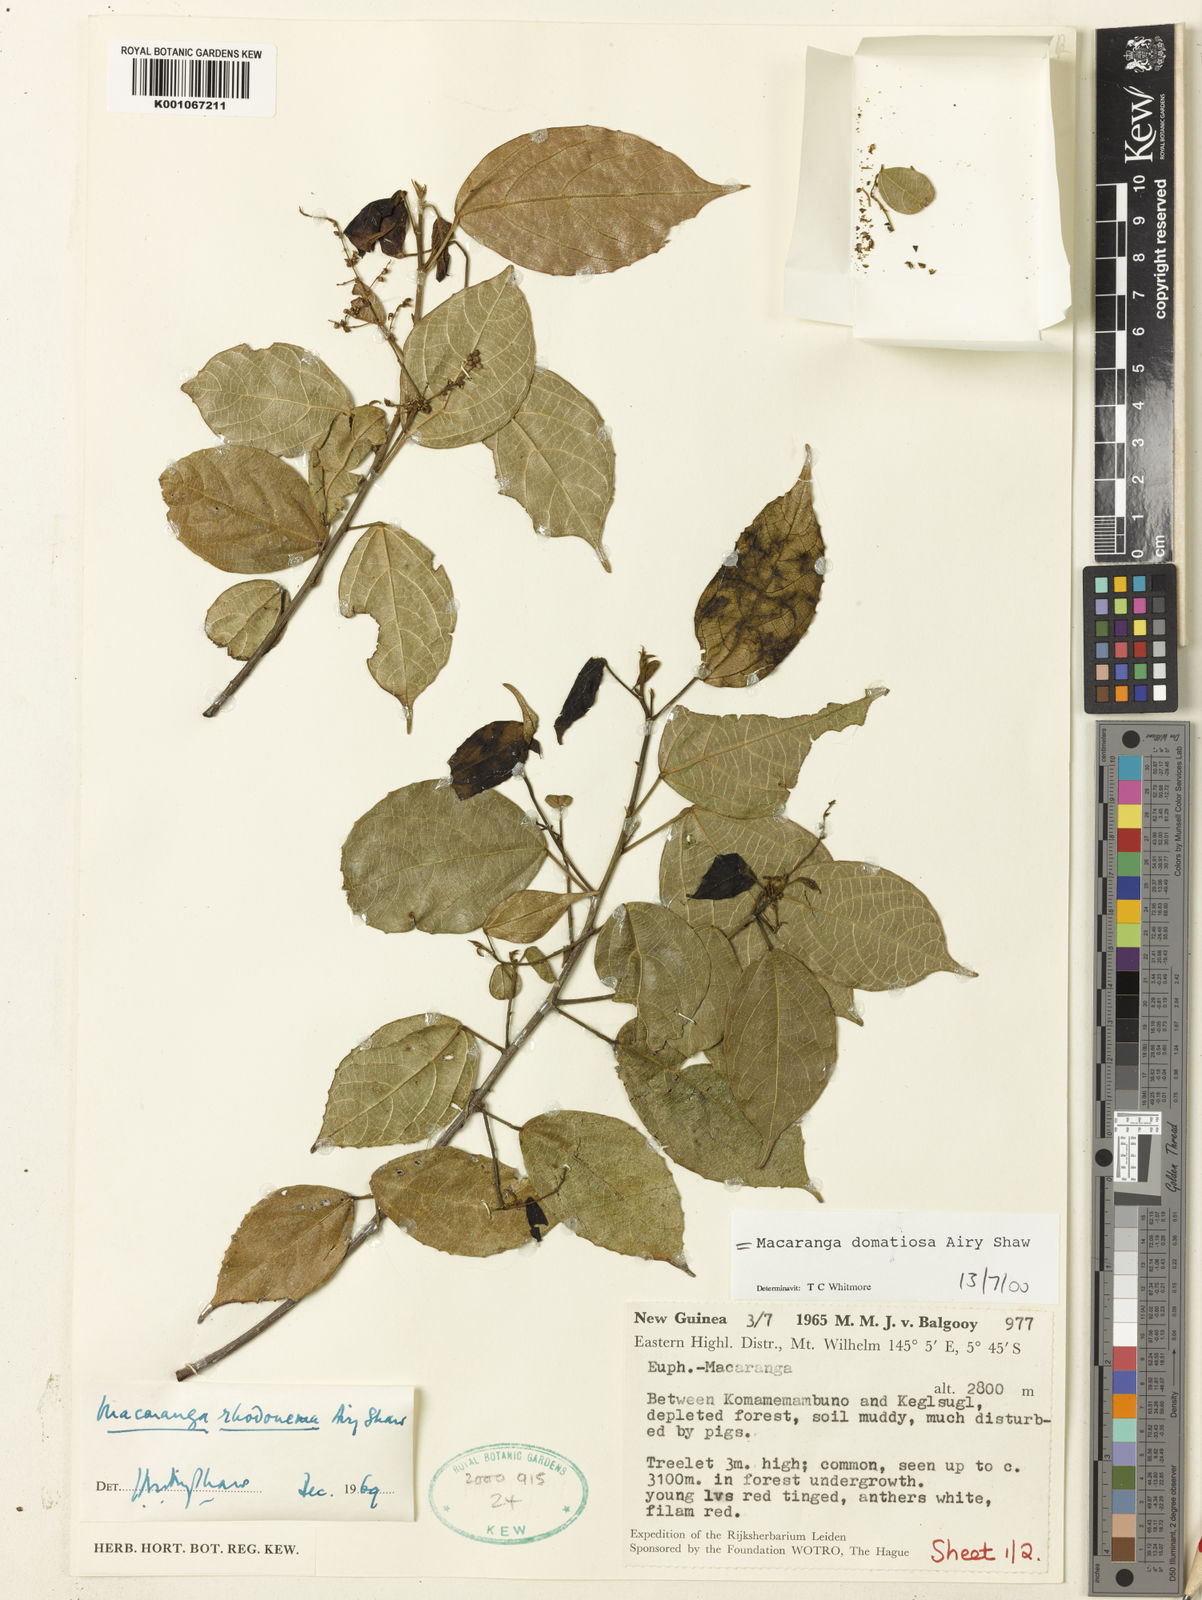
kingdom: Plantae
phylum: Tracheophyta
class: Magnoliopsida
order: Malpighiales
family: Euphorbiaceae
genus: Macaranga
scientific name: Macaranga domatiosa
